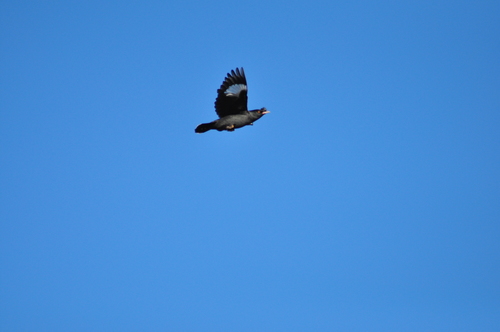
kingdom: Animalia
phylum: Chordata
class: Aves
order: Passeriformes
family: Sturnidae
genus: Acridotheres
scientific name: Acridotheres cristatellus
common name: Crested myna
